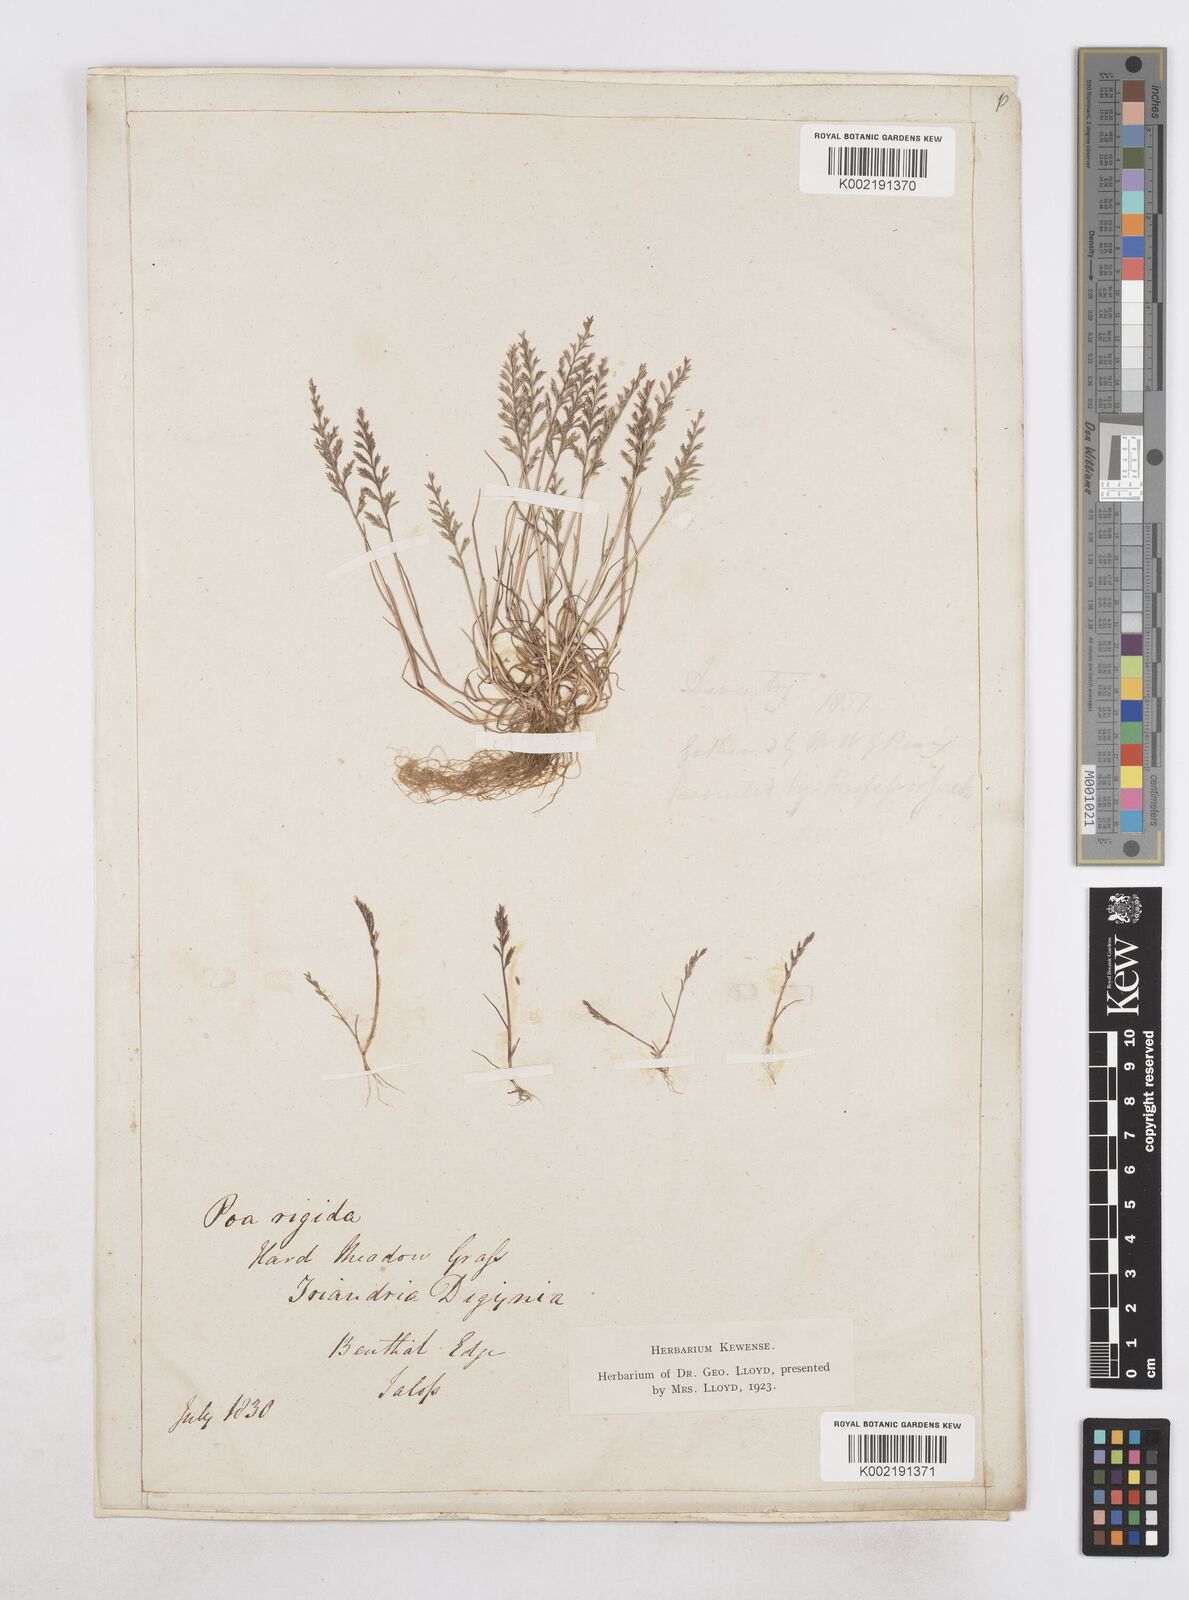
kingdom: Plantae
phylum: Tracheophyta
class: Liliopsida
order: Poales
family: Poaceae
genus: Catapodium
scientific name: Catapodium rigidum
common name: Fern-grass
